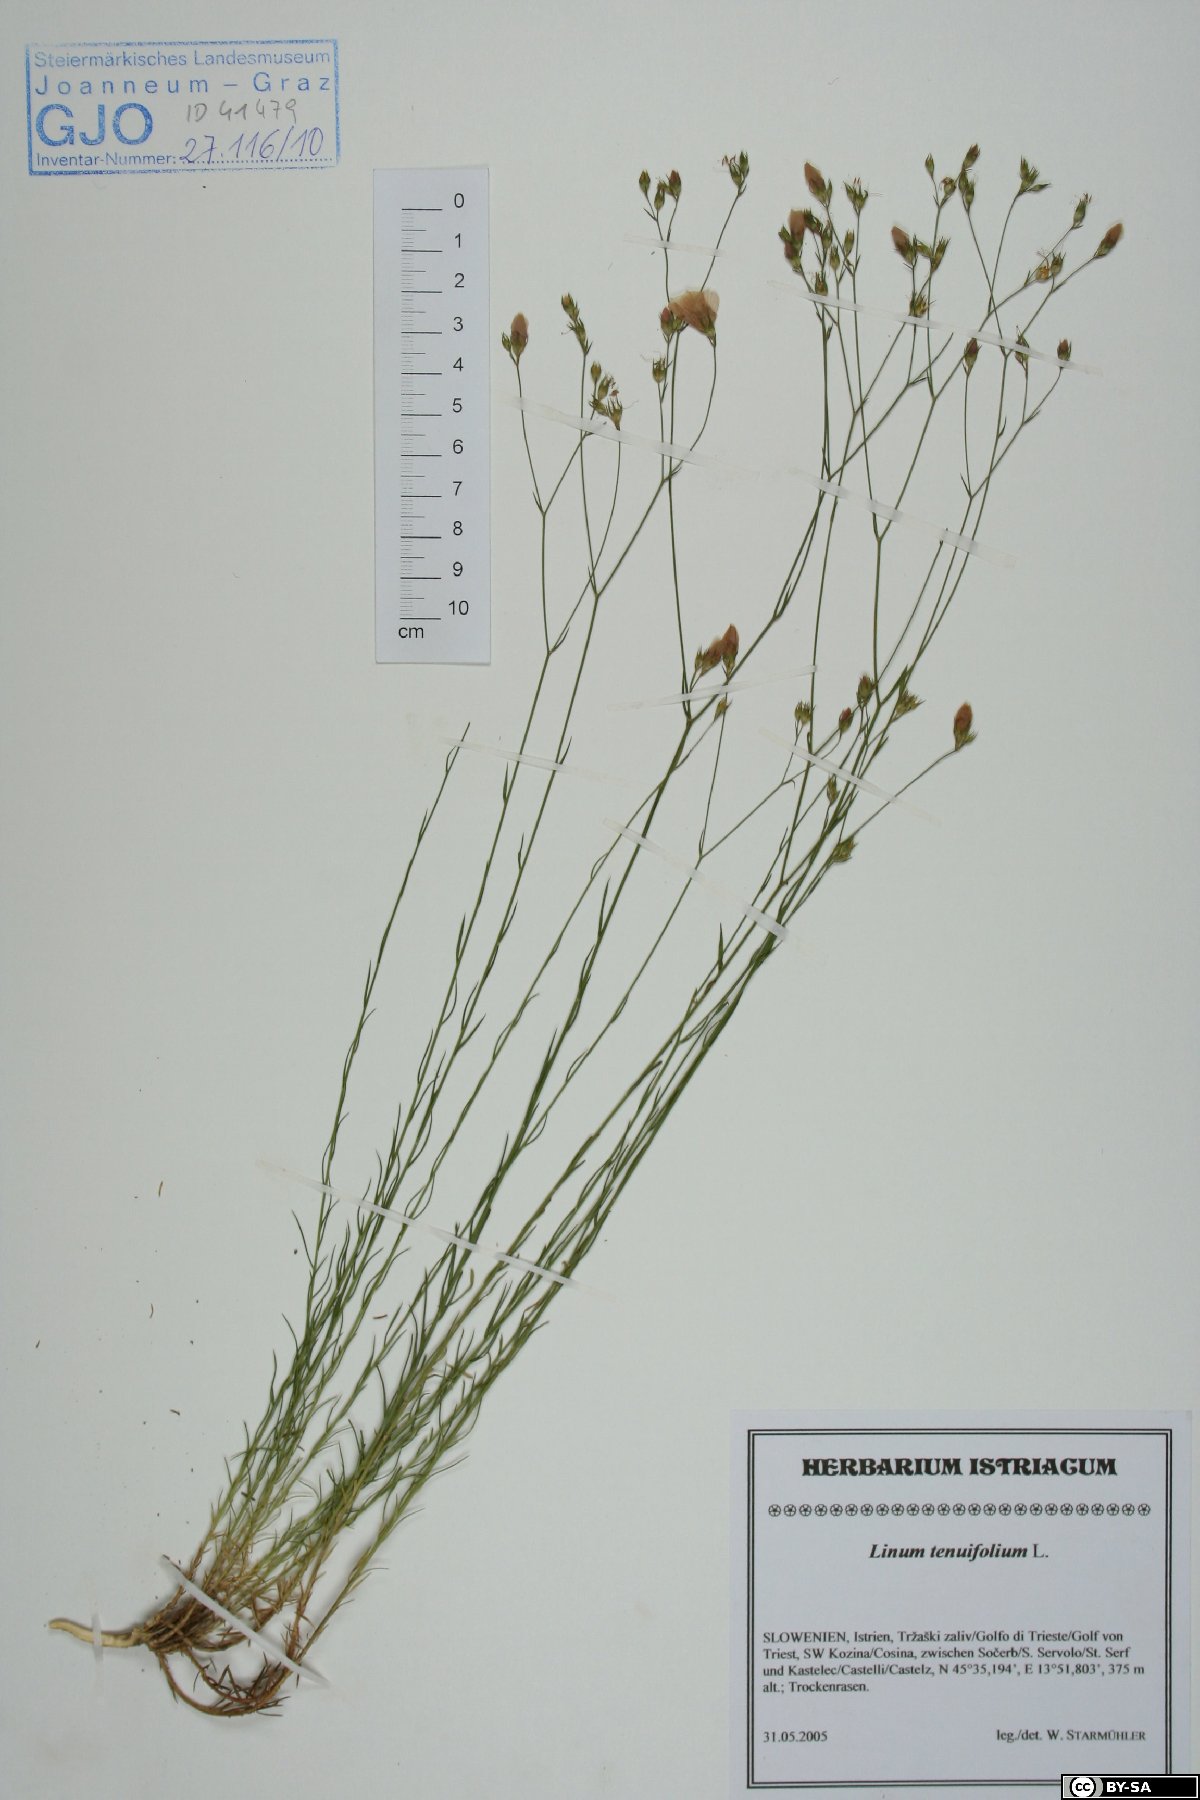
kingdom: Plantae
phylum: Tracheophyta
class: Magnoliopsida
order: Malpighiales
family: Linaceae
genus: Linum
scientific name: Linum tenuifolium
